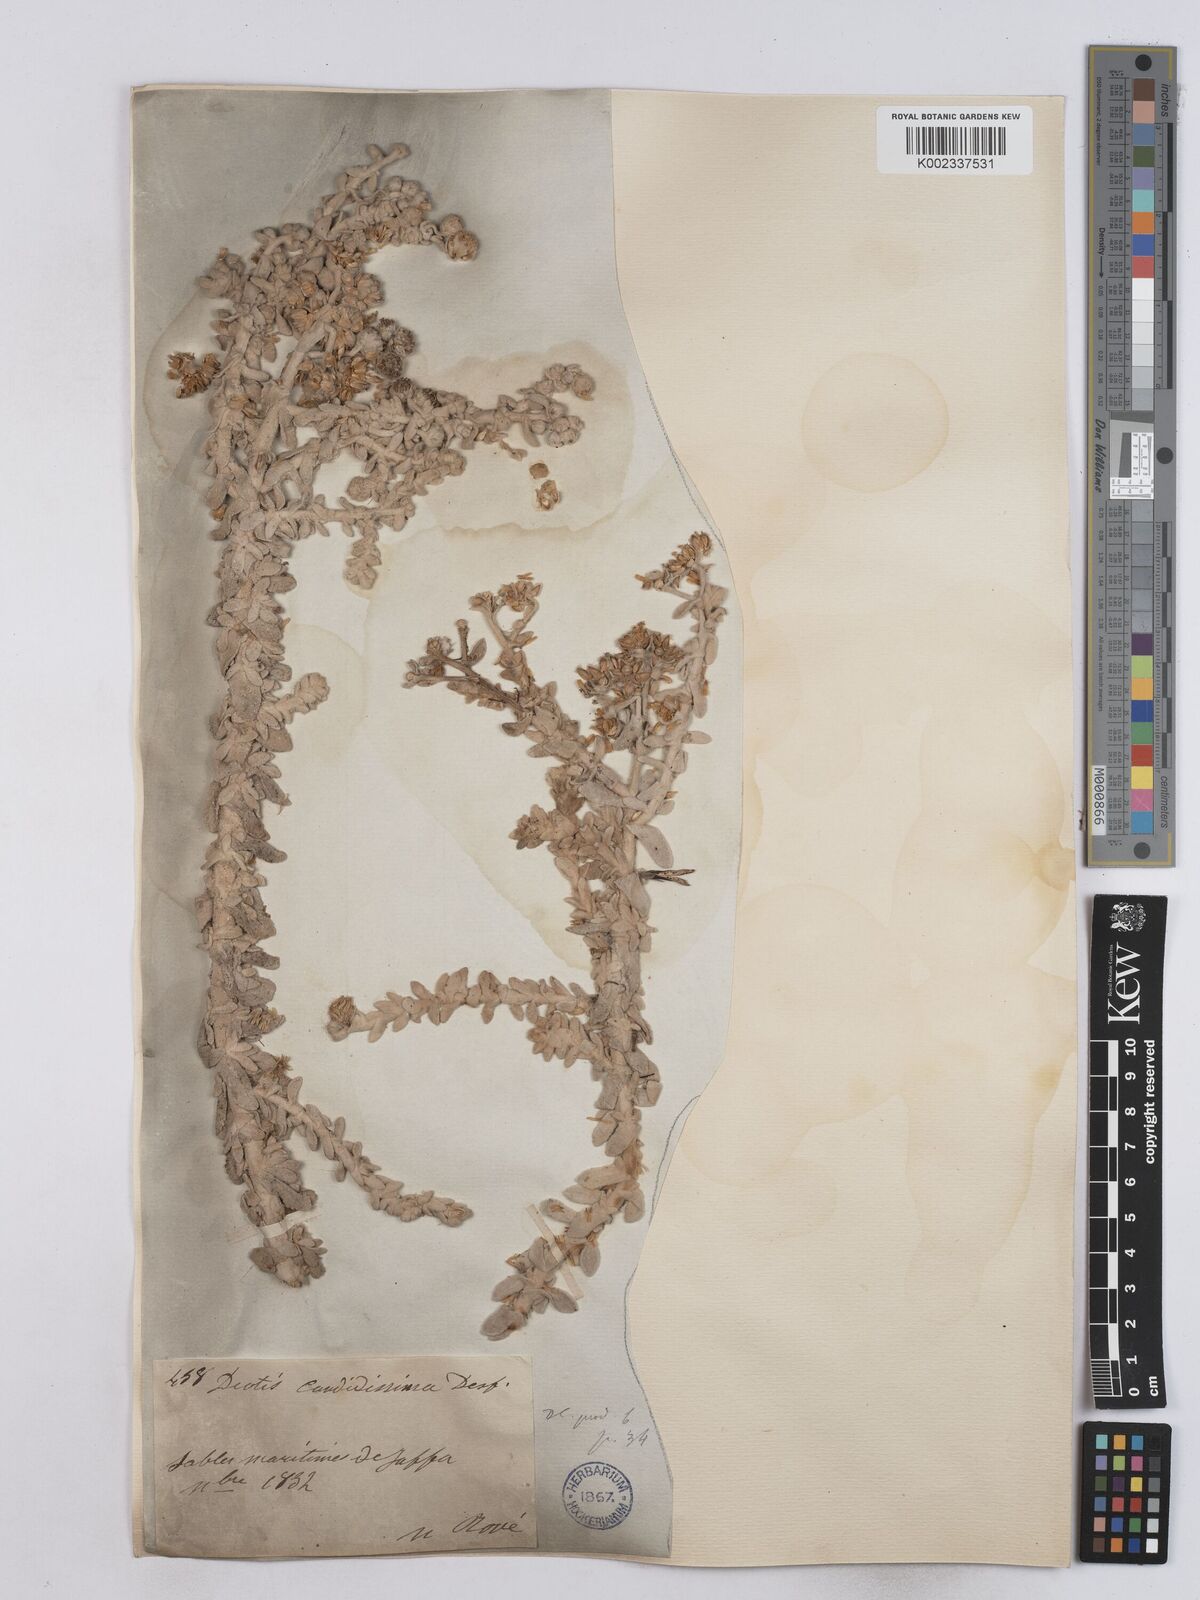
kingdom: Plantae
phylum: Tracheophyta
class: Magnoliopsida
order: Asterales
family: Asteraceae
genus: Achillea
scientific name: Achillea maritima
